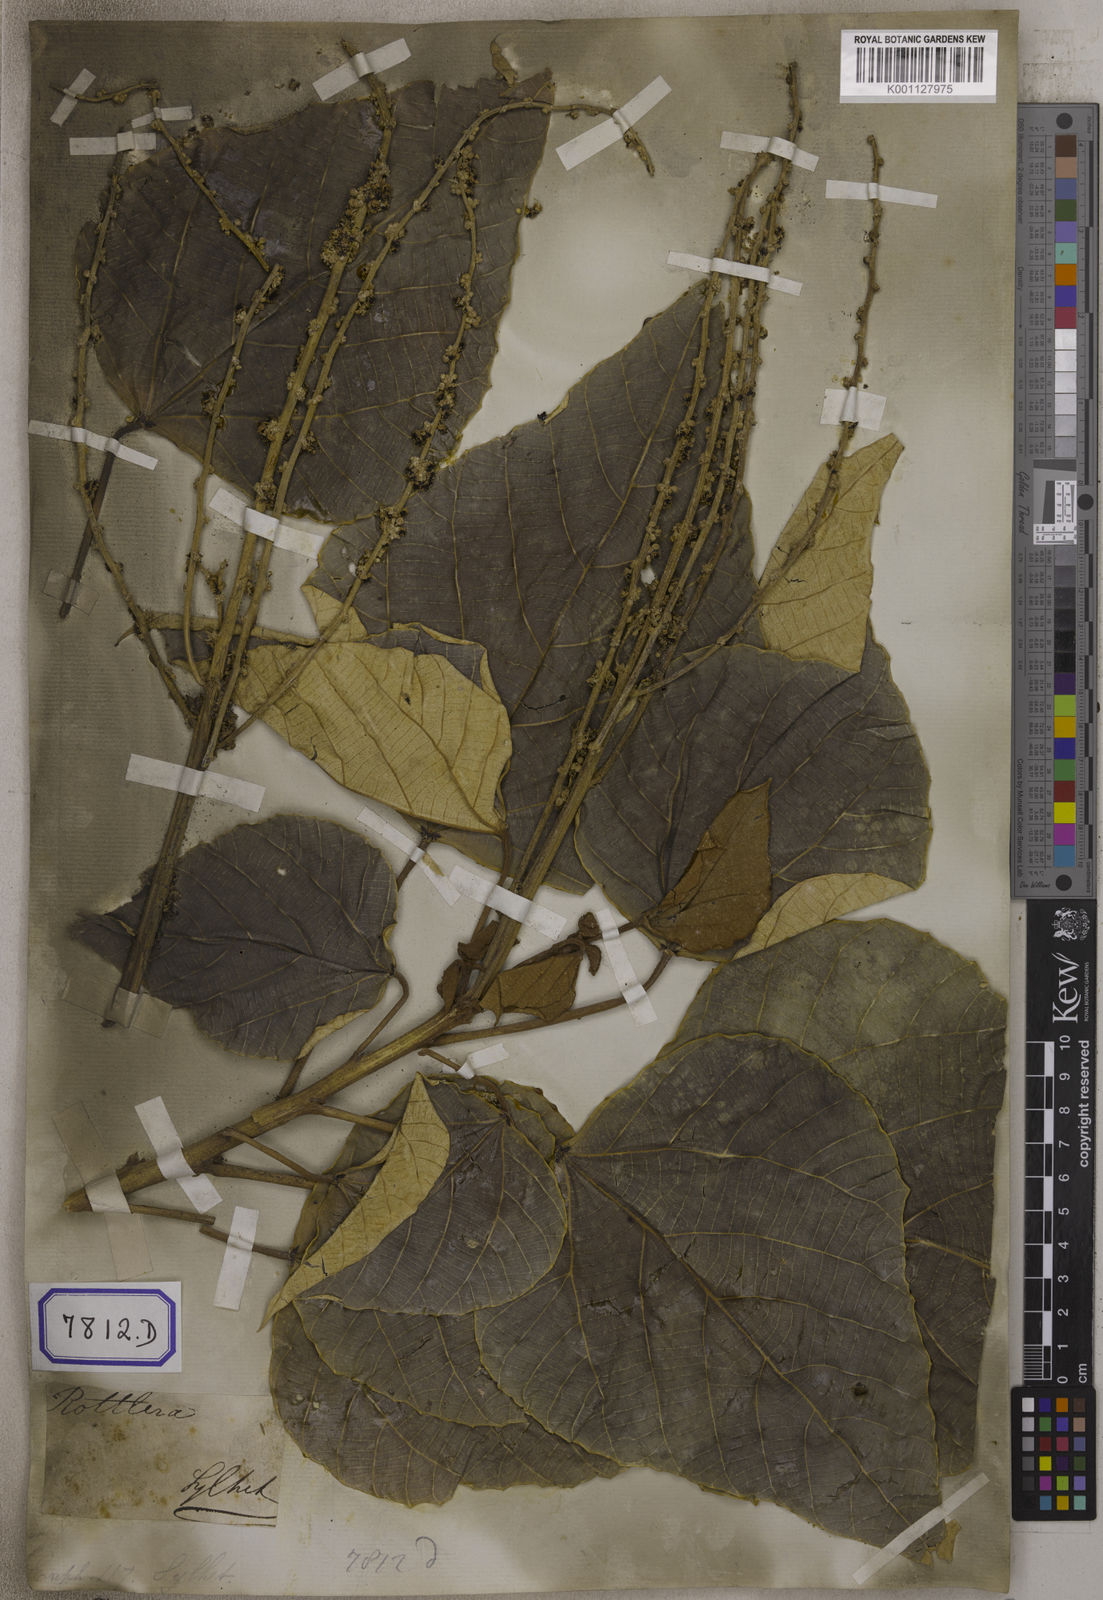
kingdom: Plantae
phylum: Tracheophyta
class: Magnoliopsida
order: Malpighiales
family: Euphorbiaceae
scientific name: Euphorbiaceae
